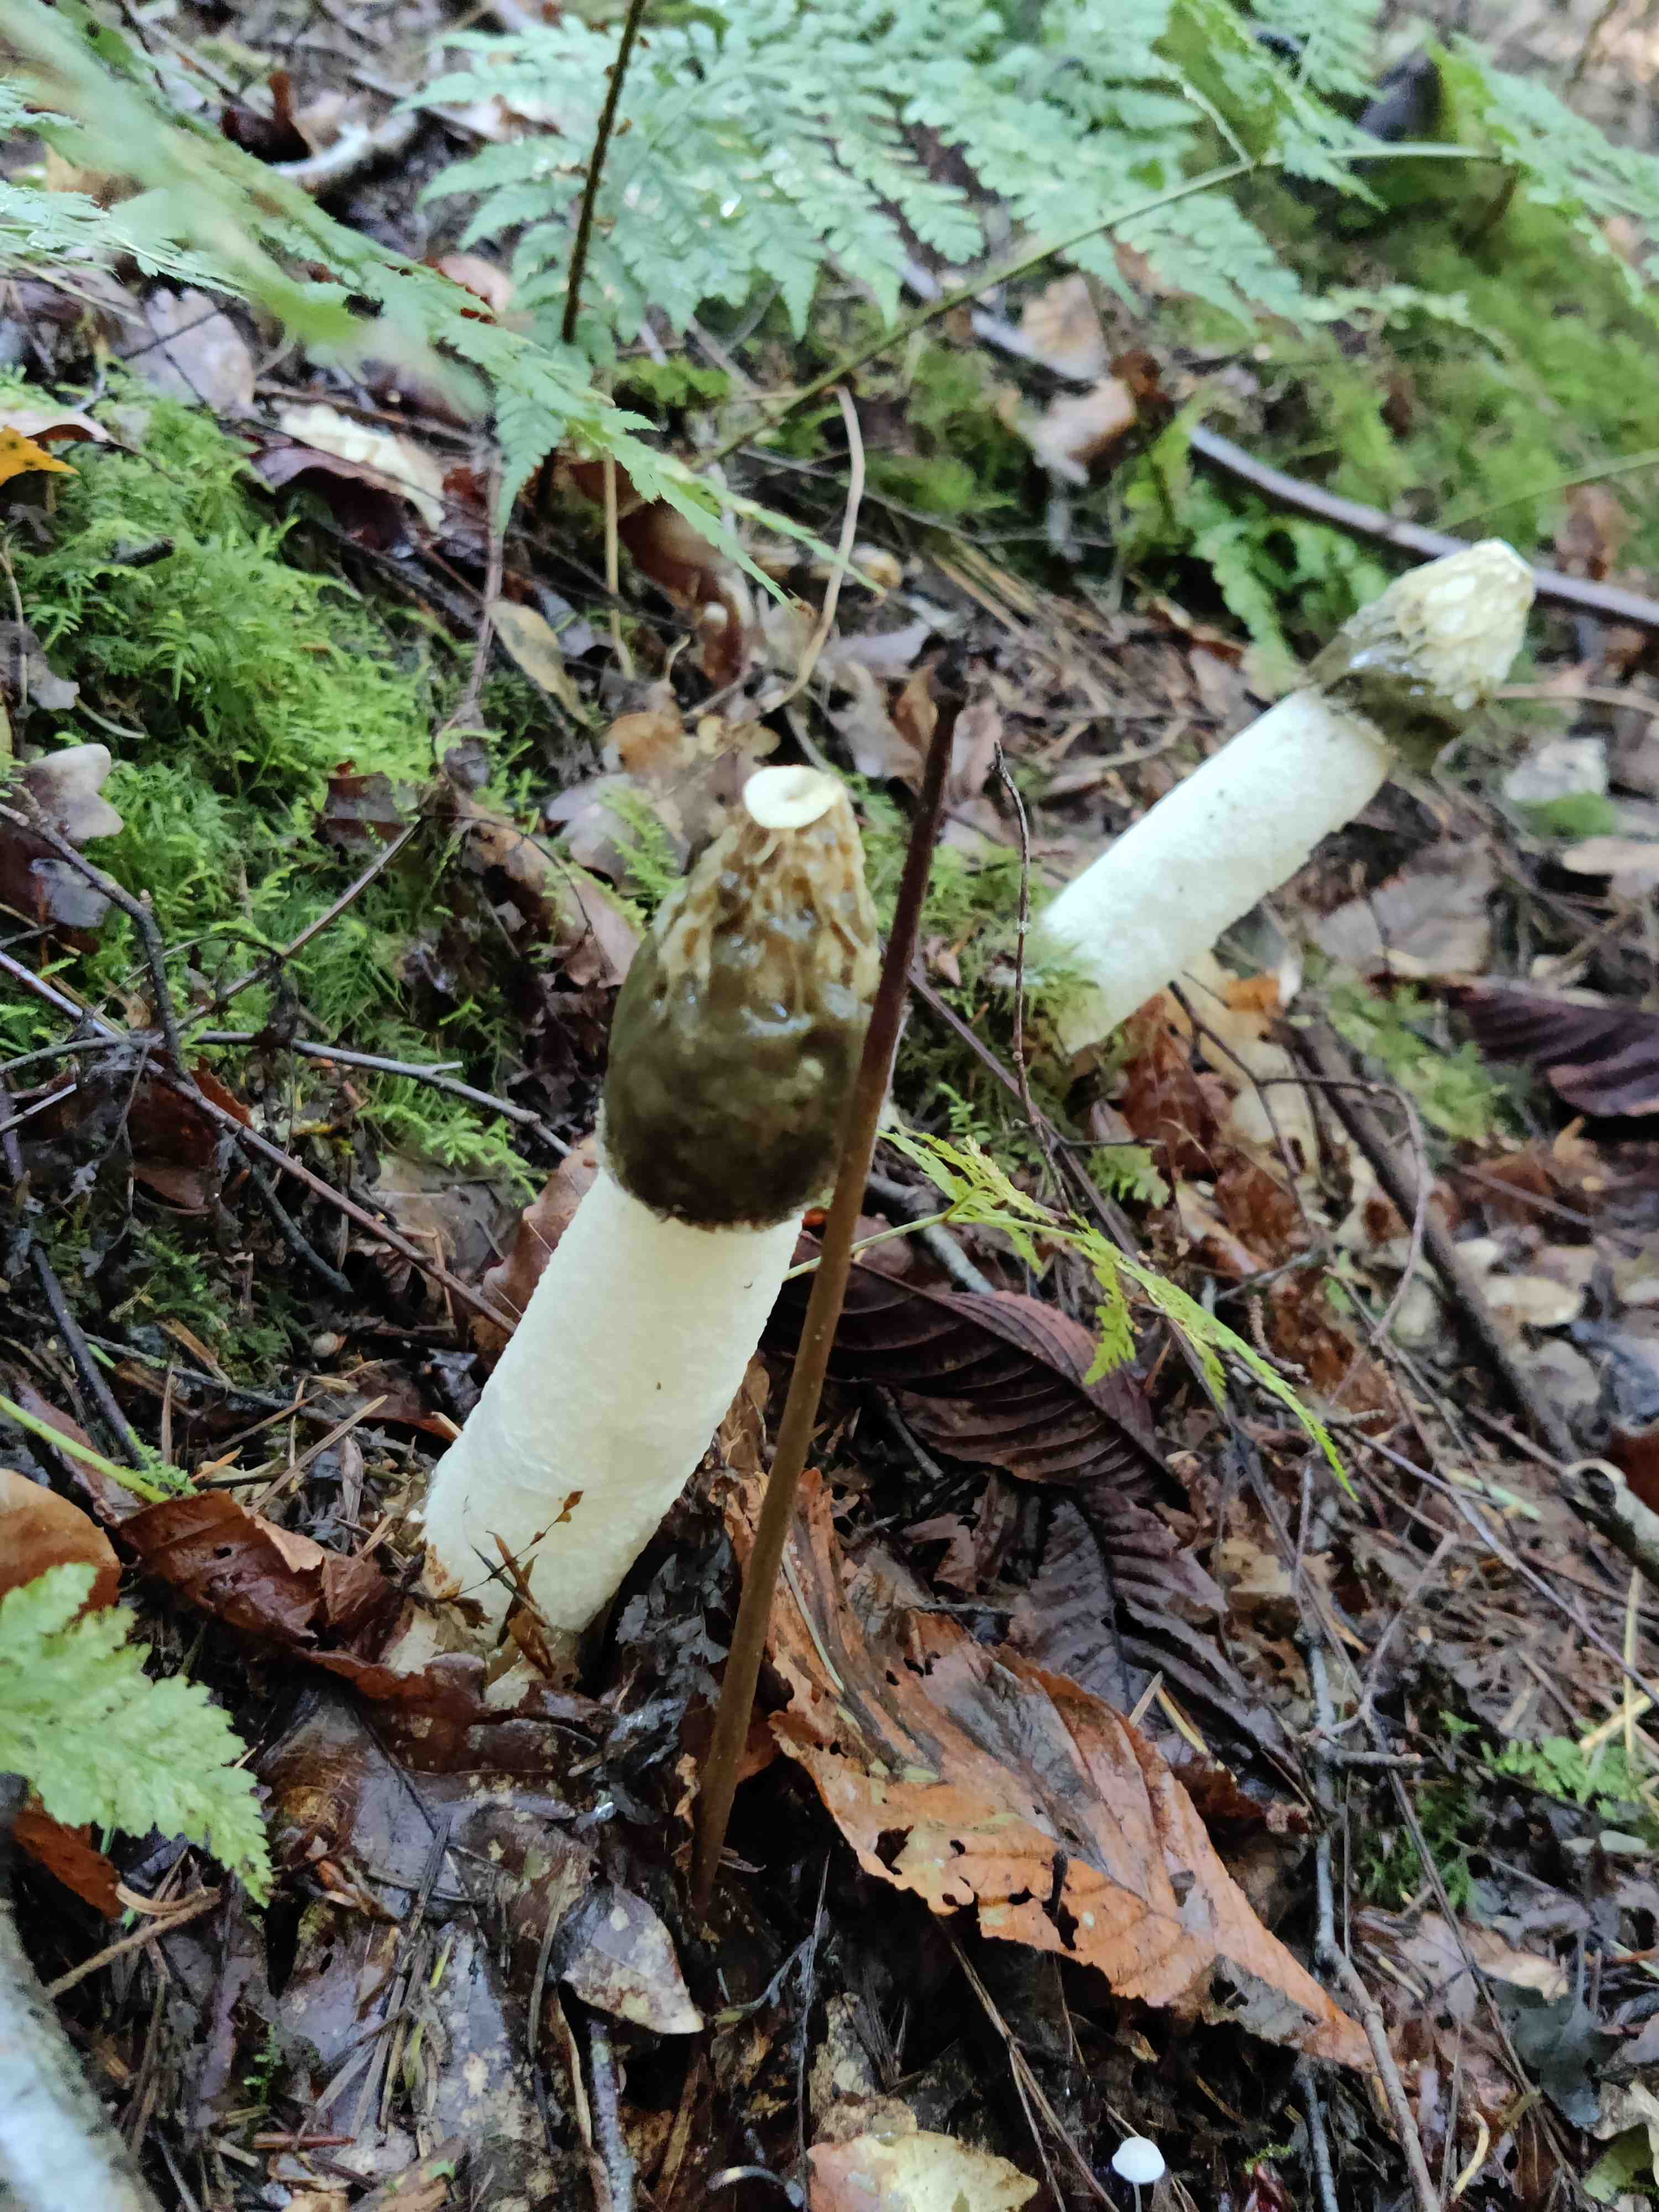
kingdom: Fungi
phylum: Basidiomycota
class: Agaricomycetes
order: Phallales
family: Phallaceae
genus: Phallus
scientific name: Phallus impudicus
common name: almindelig stinksvamp
